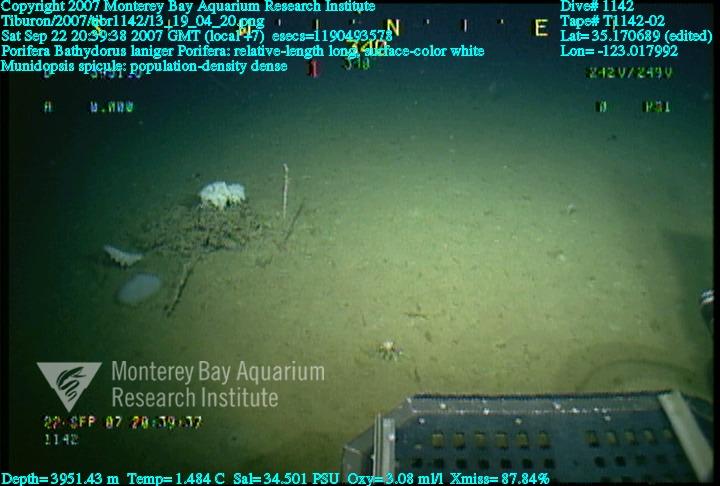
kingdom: Animalia
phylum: Porifera
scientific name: Porifera
